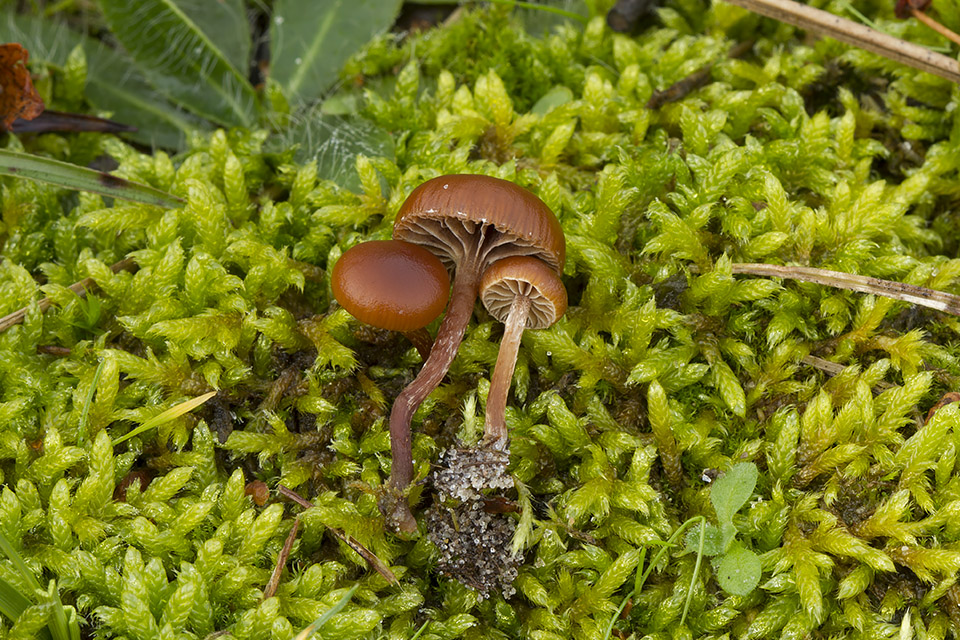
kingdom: Fungi
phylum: Basidiomycota
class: Agaricomycetes
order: Agaricales
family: Strophariaceae
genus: Deconica
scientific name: Deconica montana
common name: rødbrun stråhat
